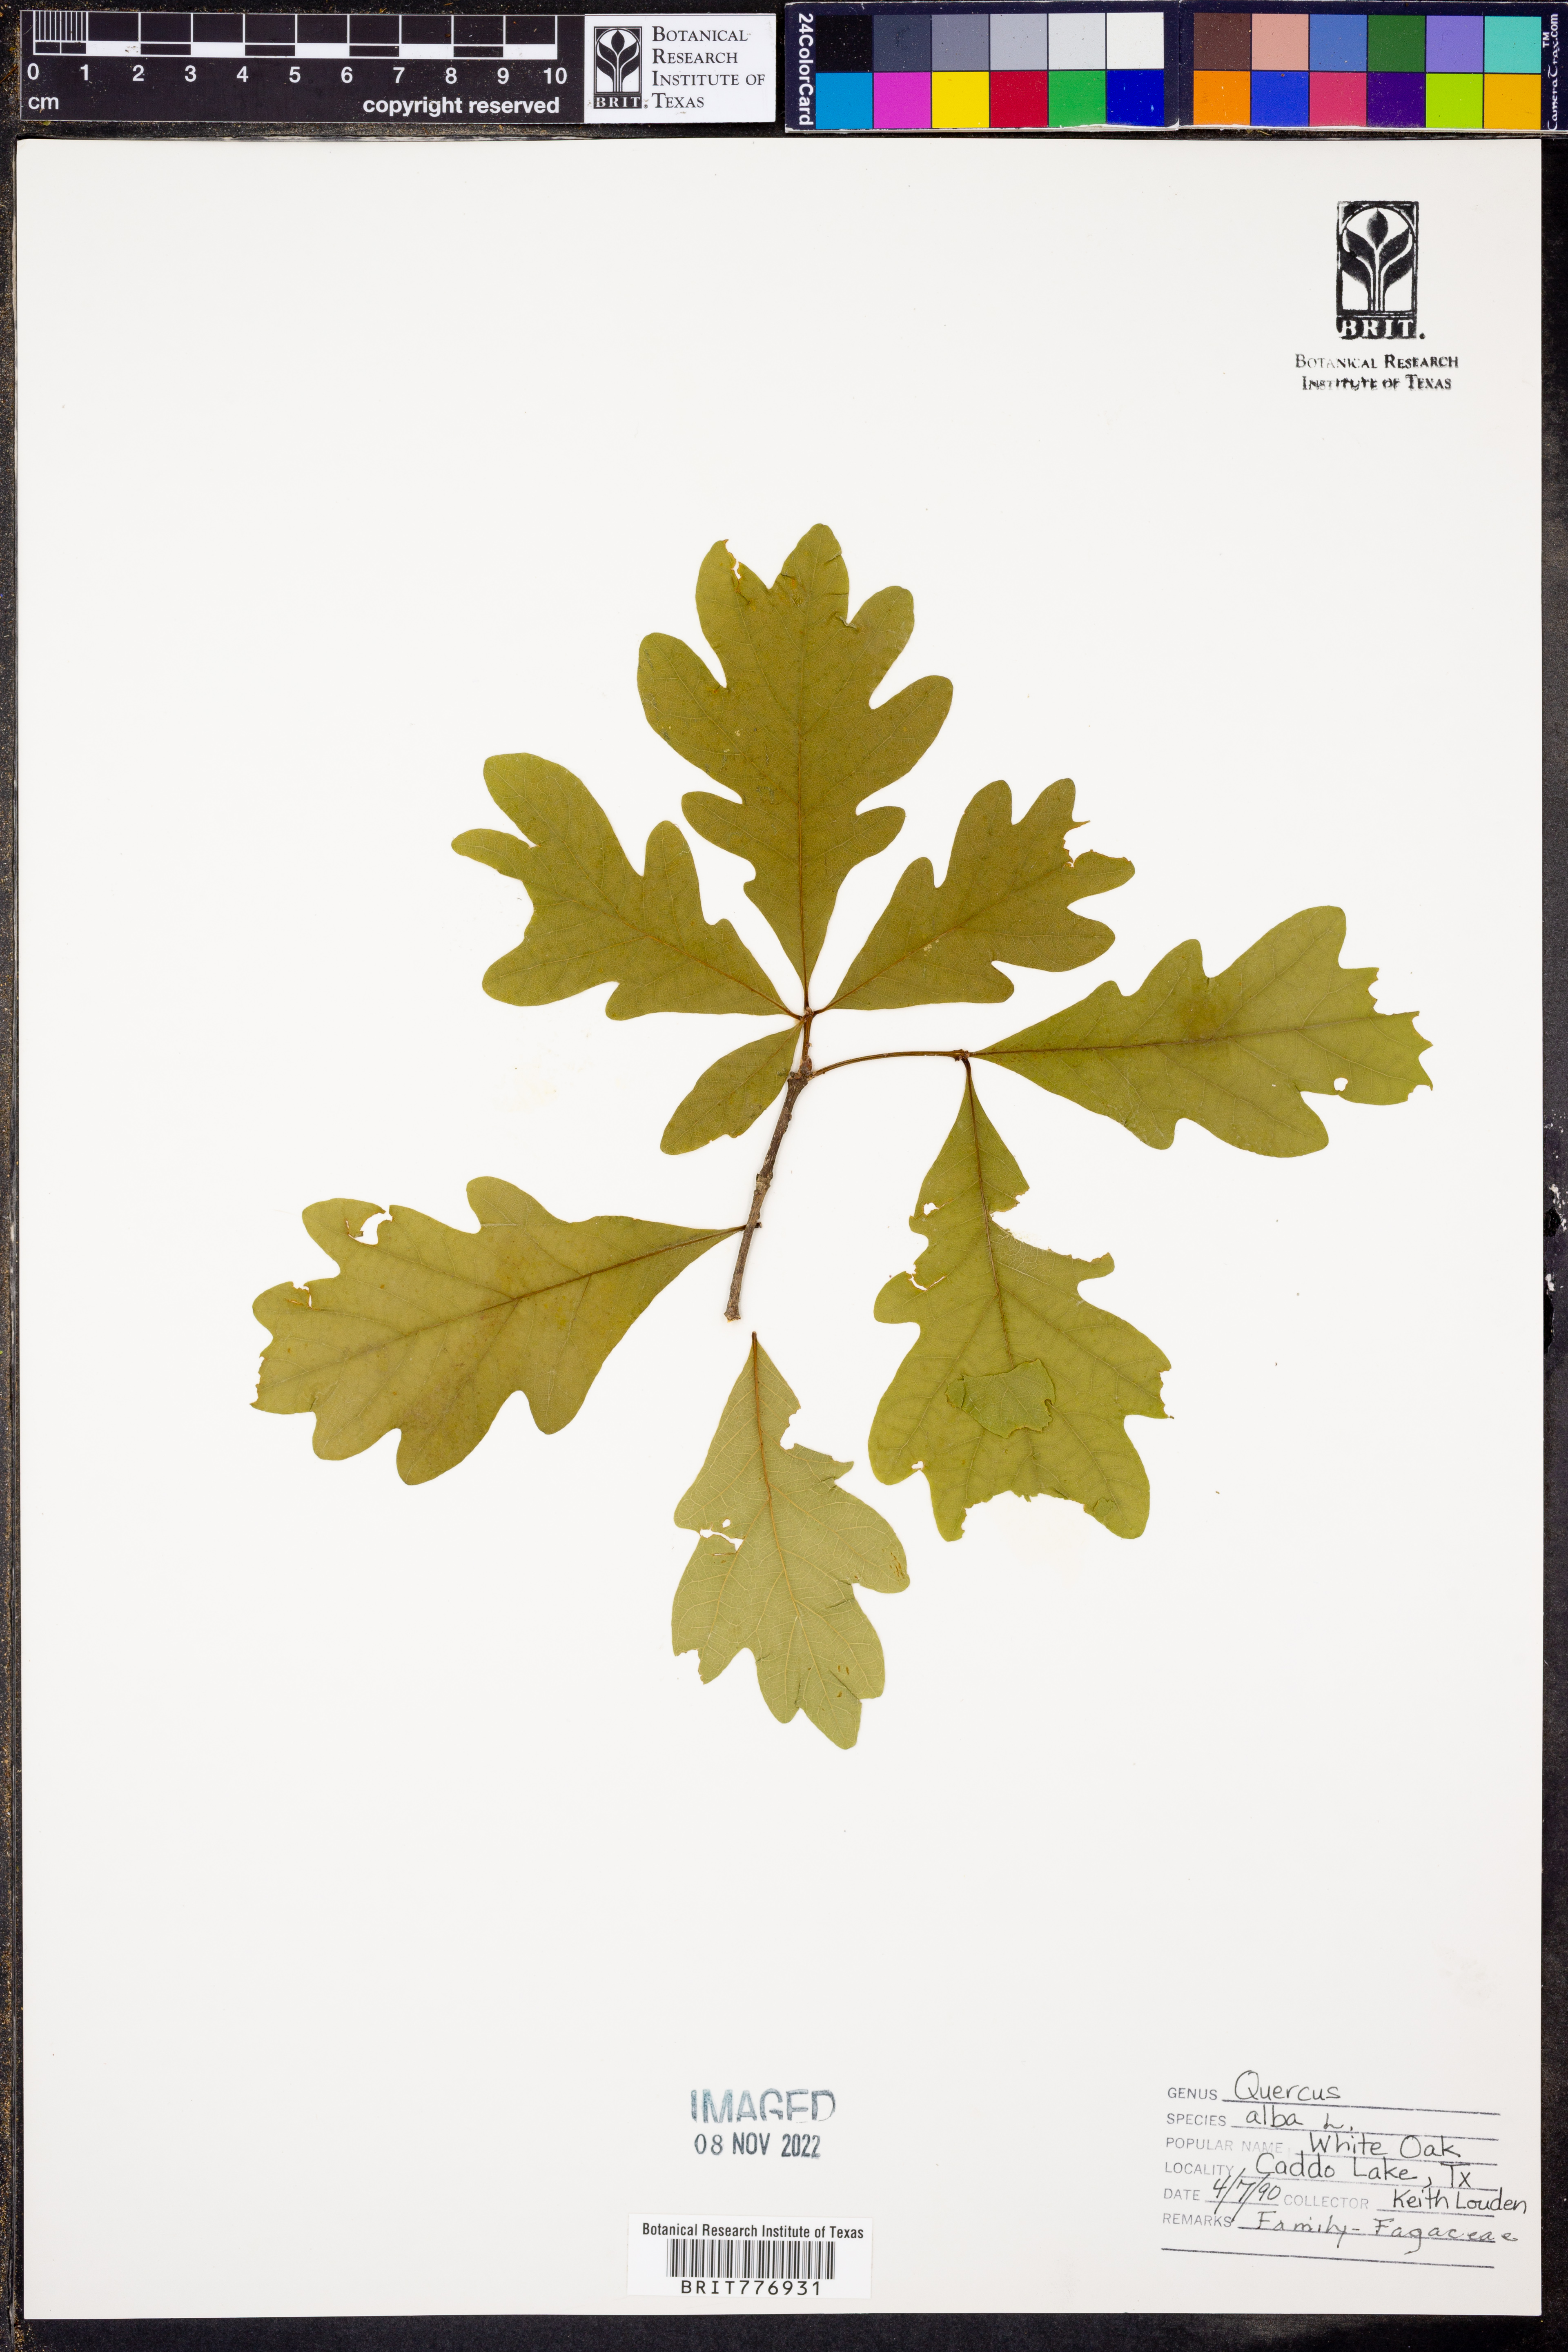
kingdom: Plantae
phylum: Tracheophyta
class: Magnoliopsida
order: Fagales
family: Fagaceae
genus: Quercus
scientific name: Quercus alba
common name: White oak
